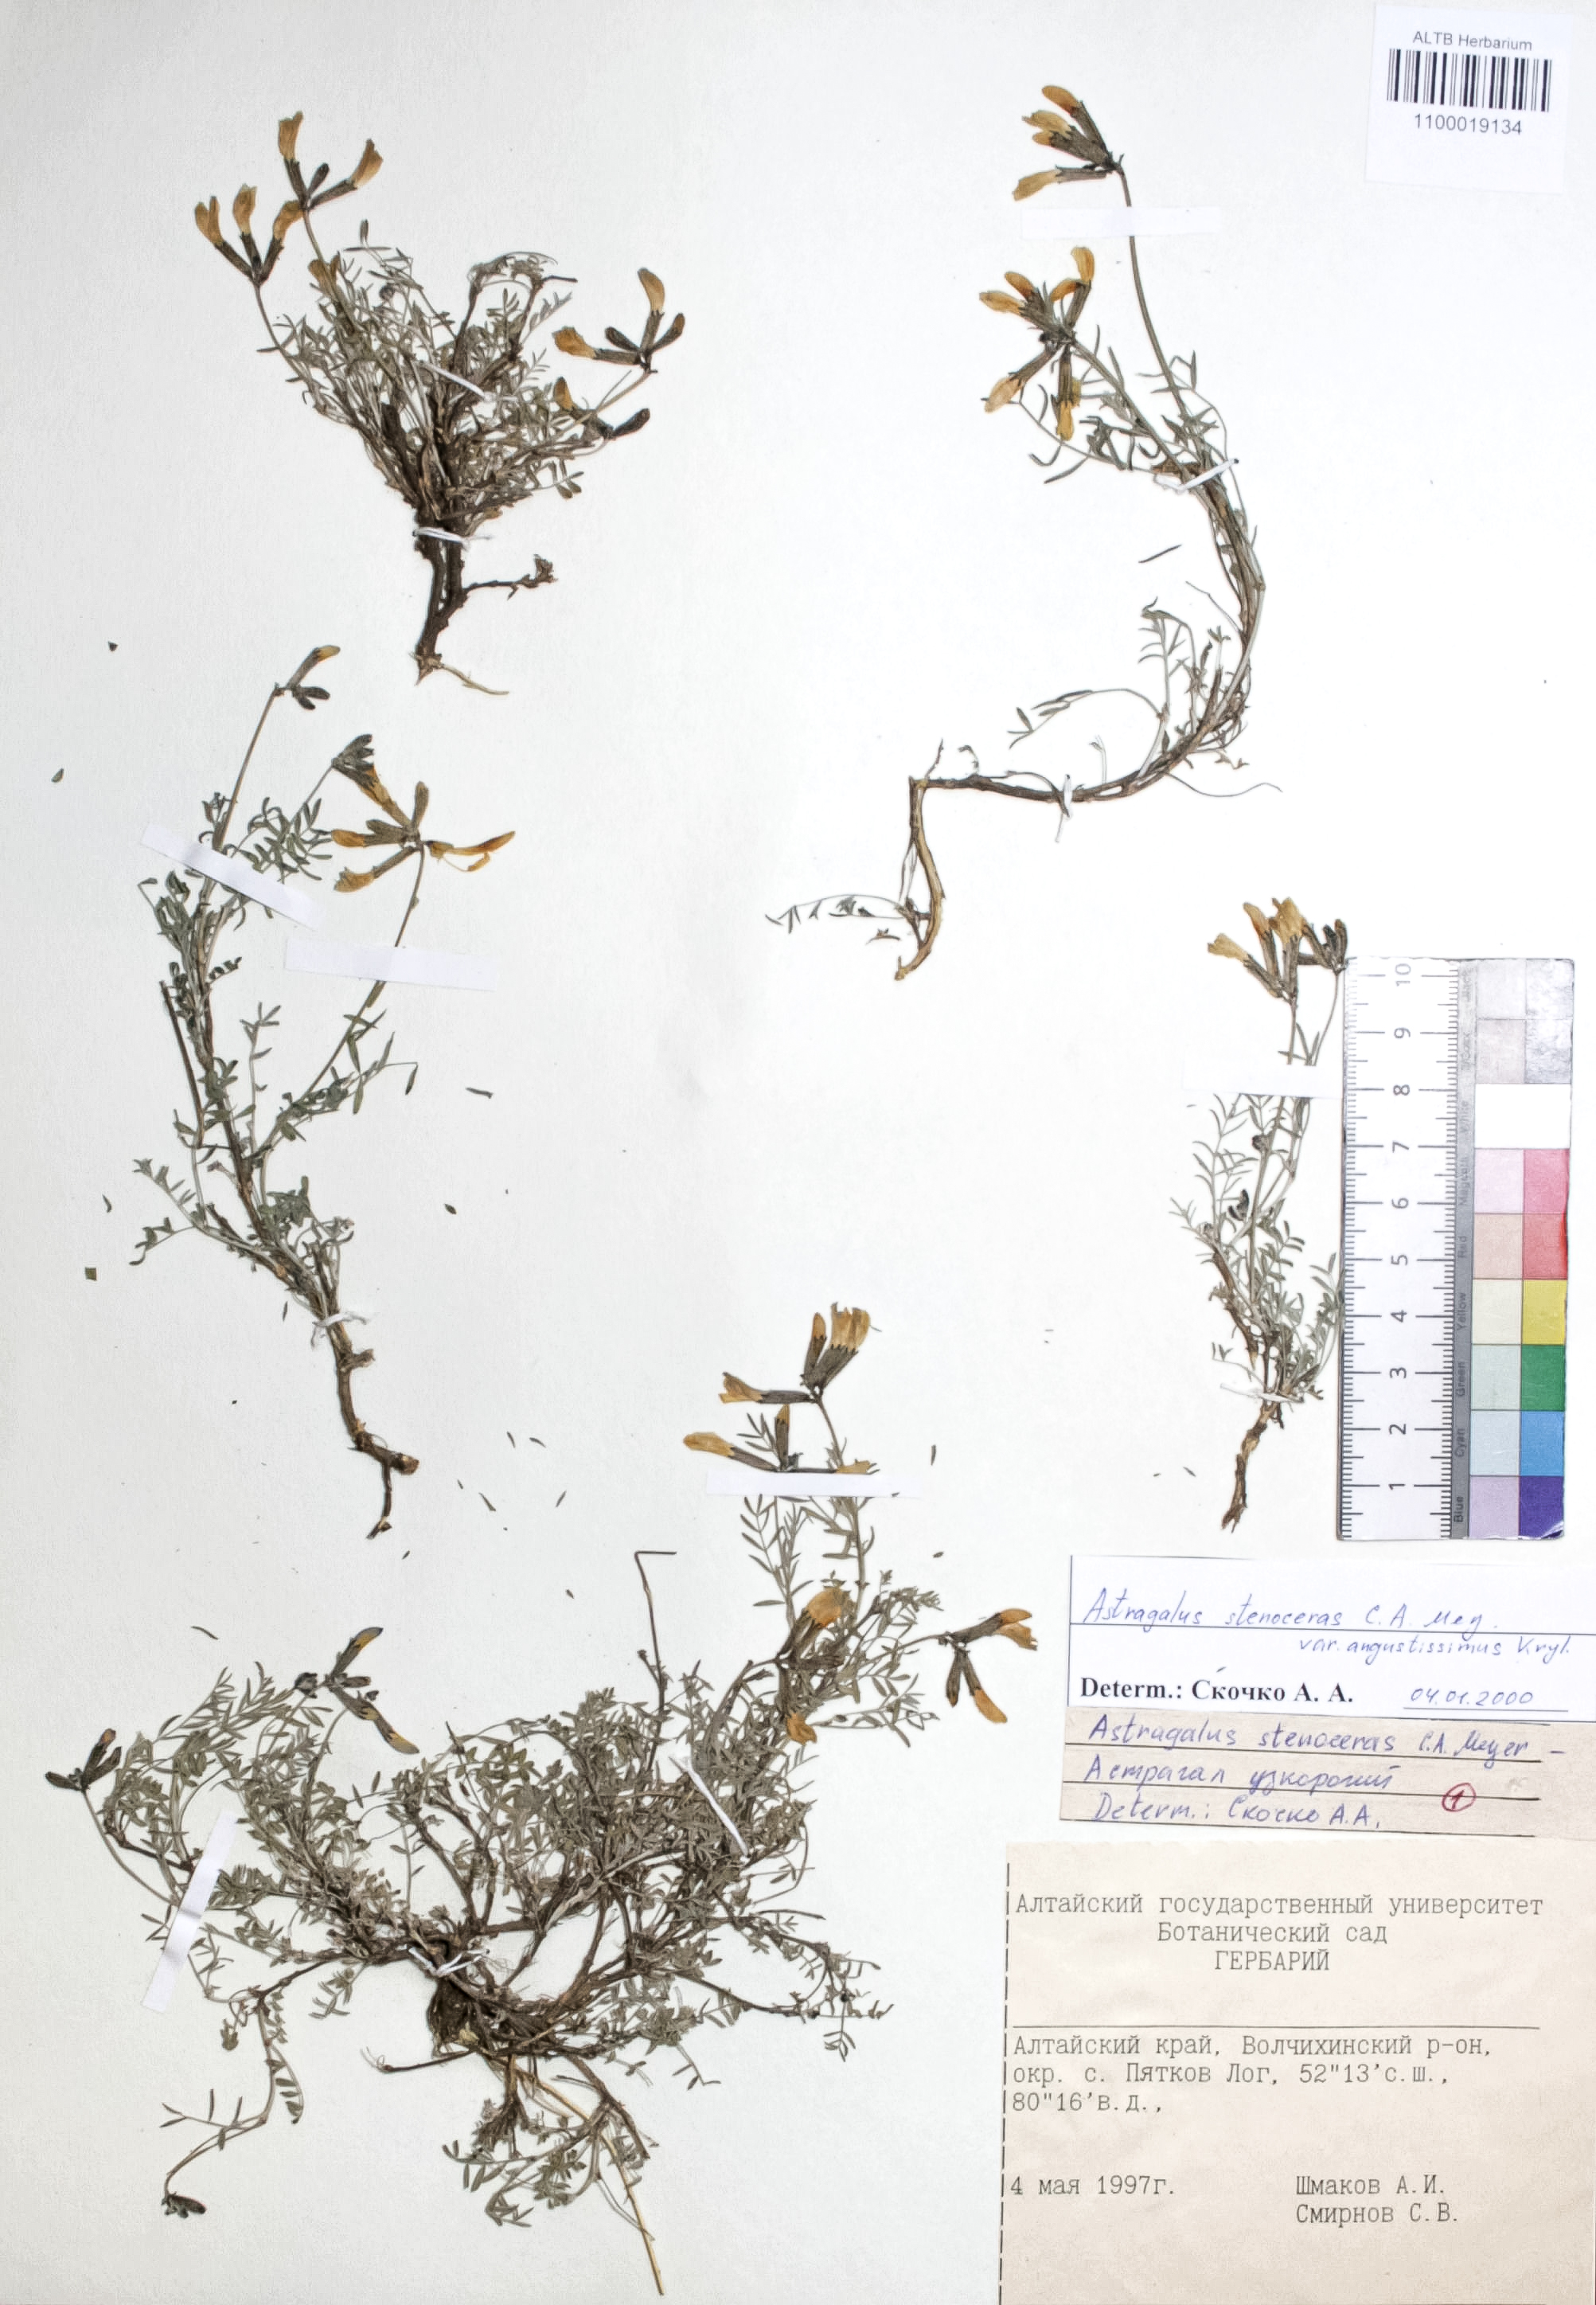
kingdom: Plantae
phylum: Tracheophyta
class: Magnoliopsida
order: Fabales
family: Fabaceae
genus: Astragalus
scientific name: Astragalus stenoceras
